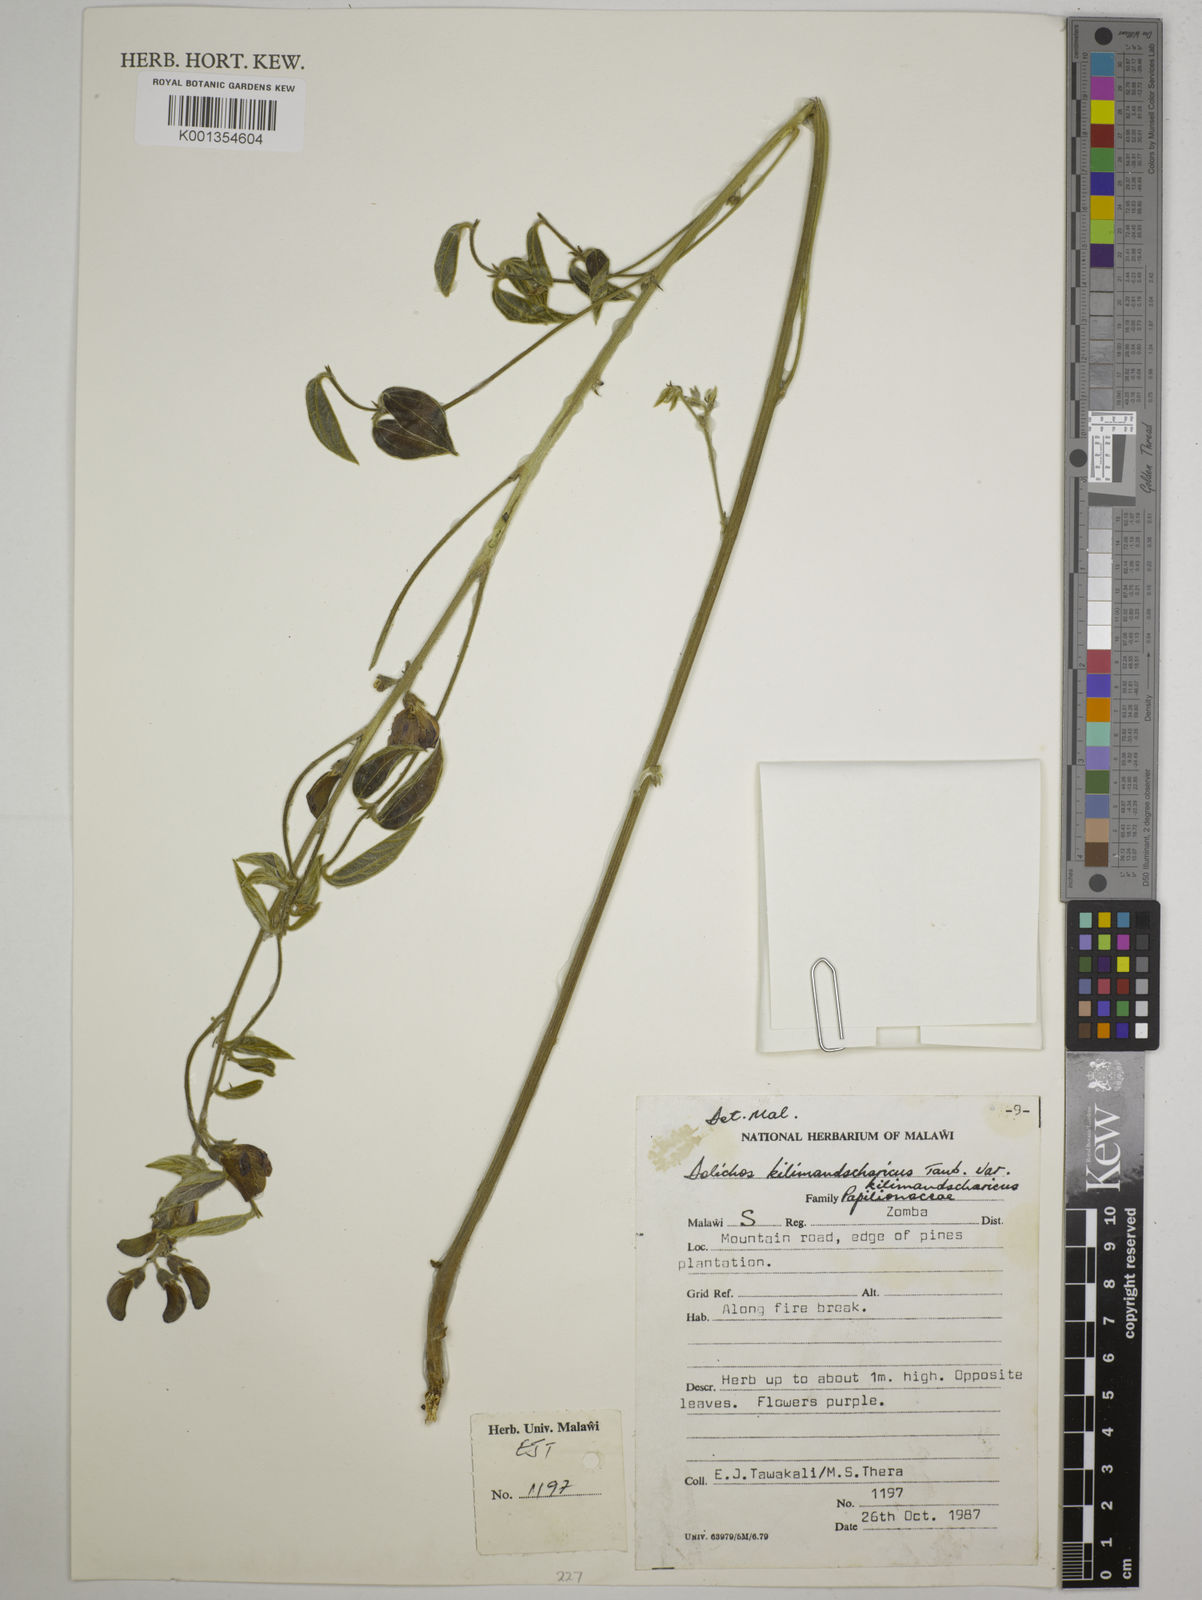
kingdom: Plantae
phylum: Tracheophyta
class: Magnoliopsida
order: Fabales
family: Fabaceae
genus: Dolichos
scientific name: Dolichos
